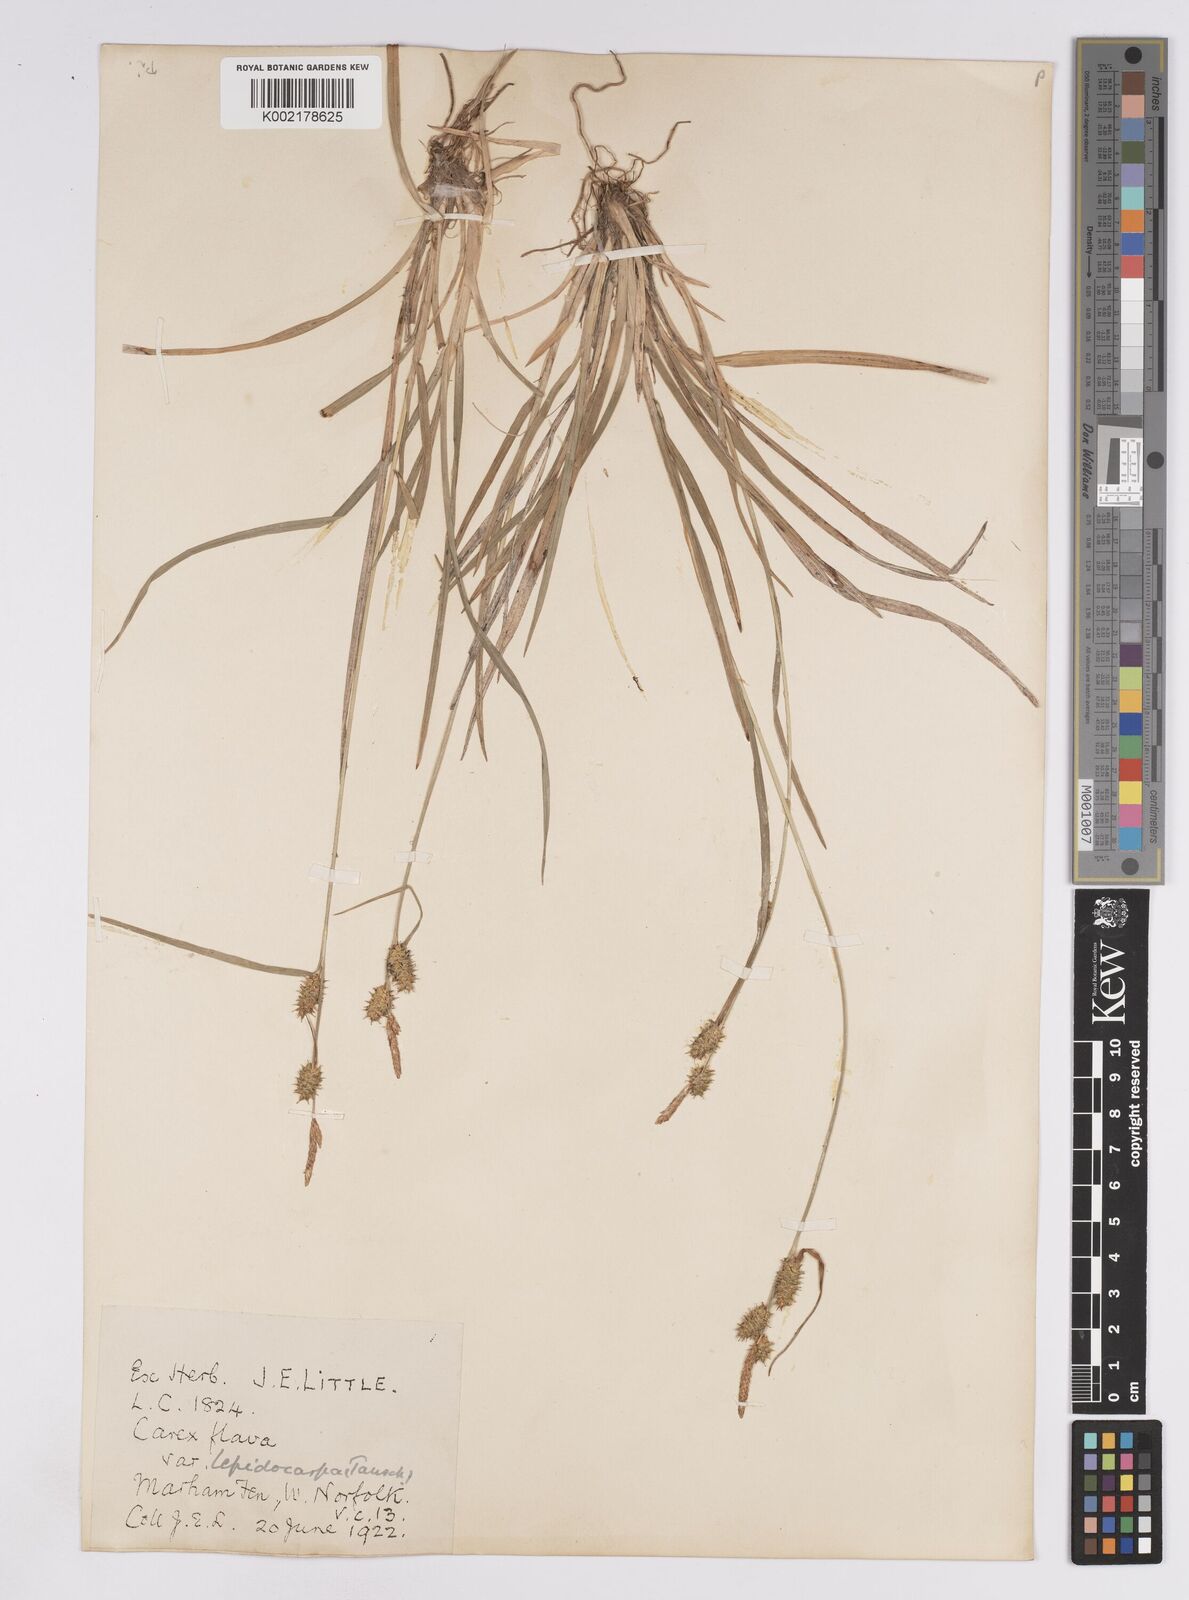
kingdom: Plantae
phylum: Tracheophyta
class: Liliopsida
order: Poales
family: Cyperaceae
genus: Carex
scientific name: Carex lepidocarpa
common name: Long-stalked yellow-sedge
